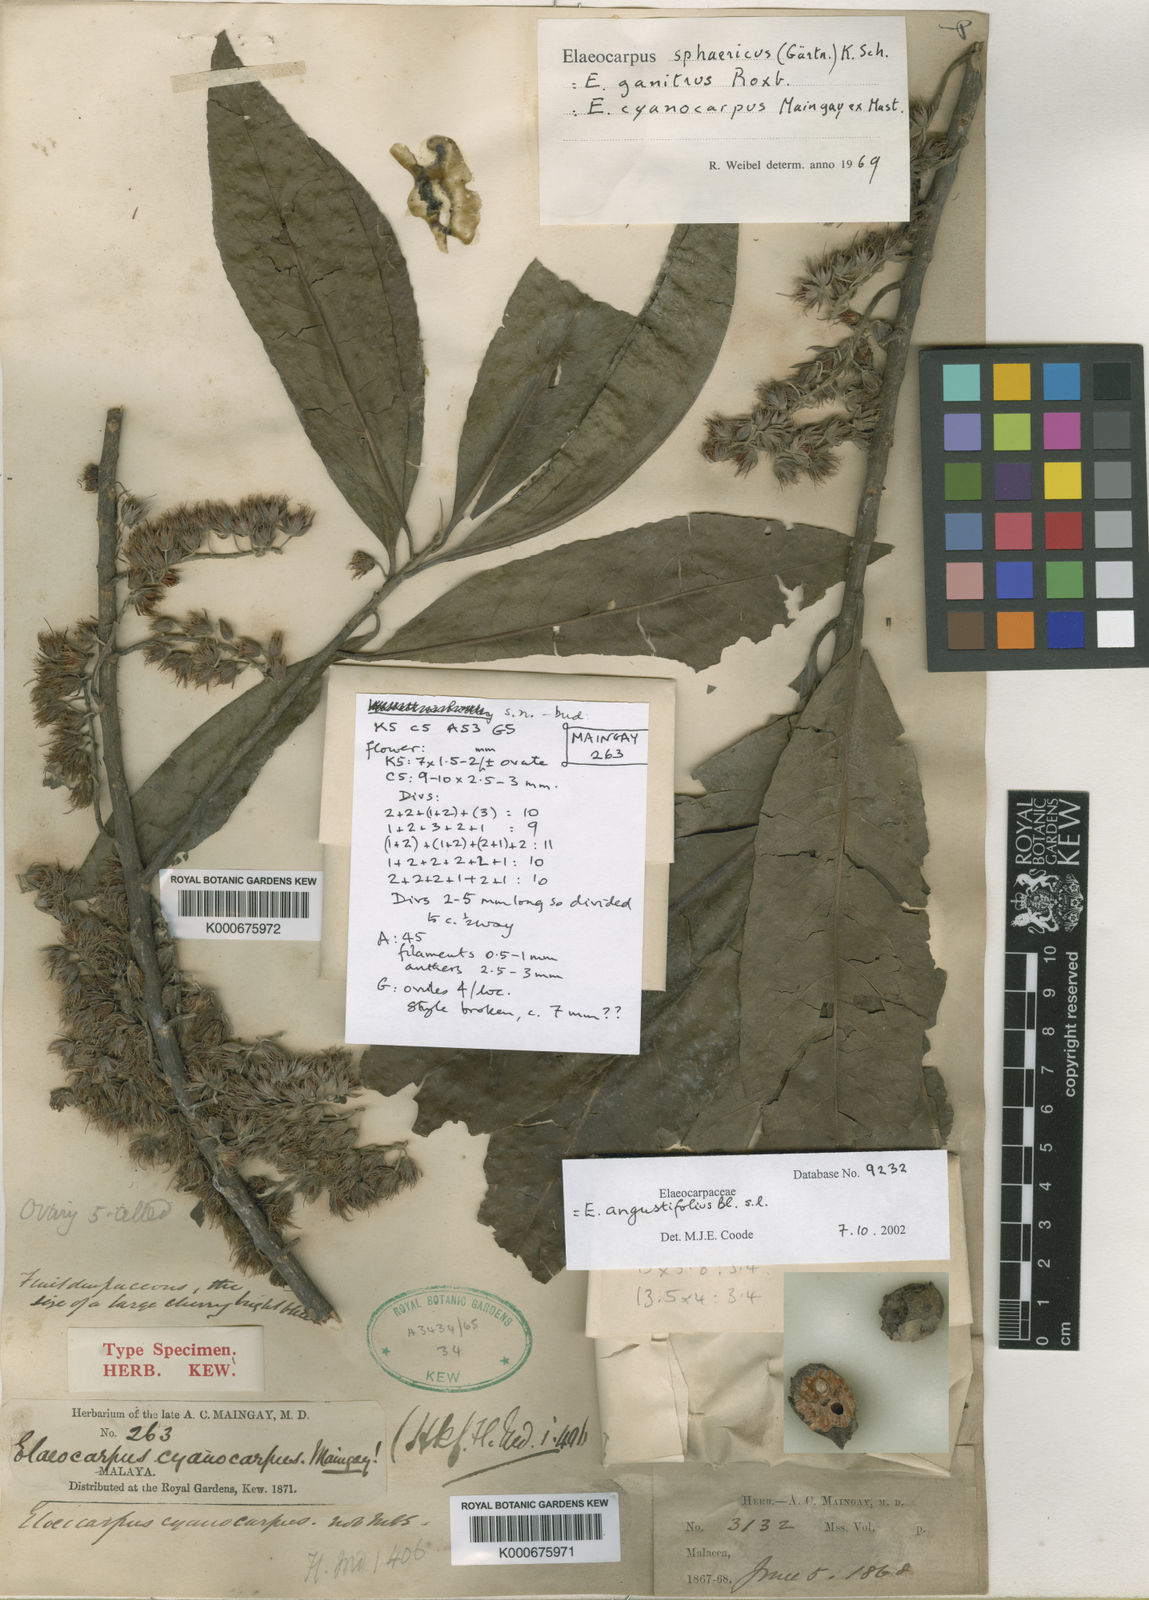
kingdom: Plantae
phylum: Tracheophyta
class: Magnoliopsida
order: Oxalidales
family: Elaeocarpaceae
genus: Elaeocarpus
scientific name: Elaeocarpus angustifolius
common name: Blue marble tree
